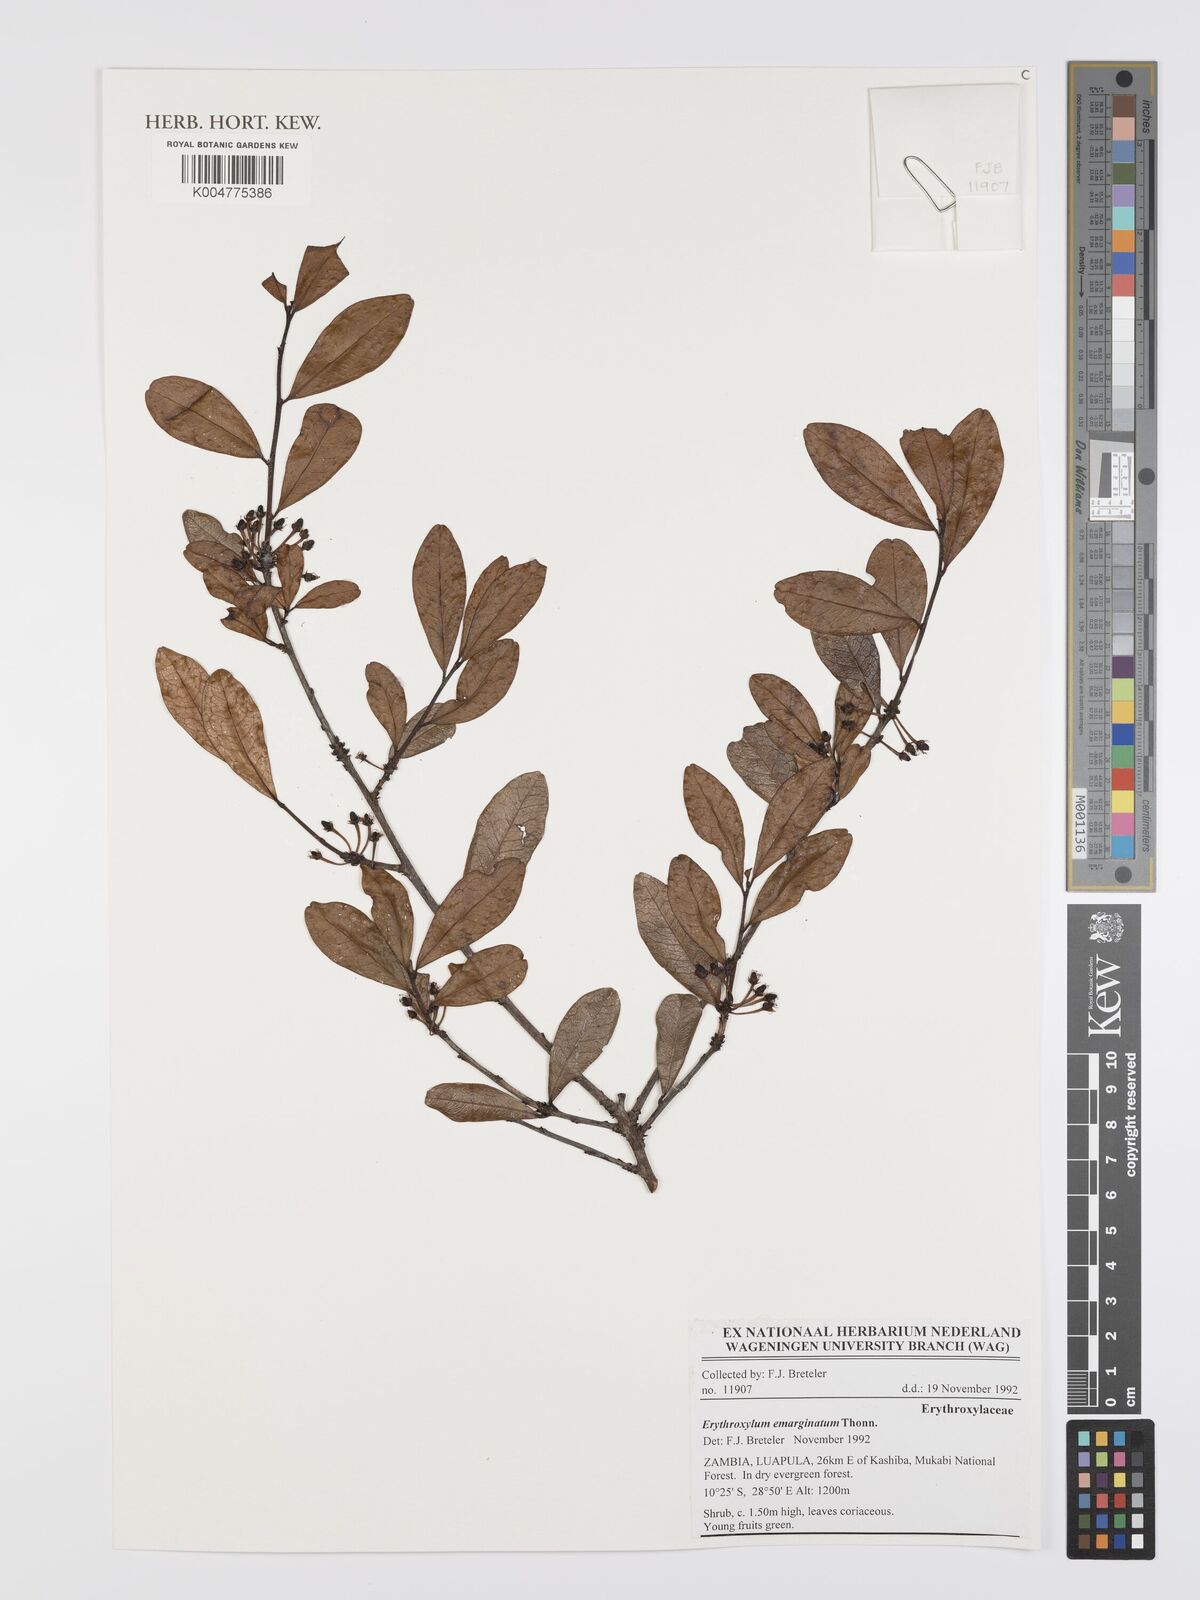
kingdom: Plantae
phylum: Tracheophyta
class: Magnoliopsida
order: Malpighiales
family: Erythroxylaceae
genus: Erythroxylum
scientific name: Erythroxylum emarginatum
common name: African coca-tree
